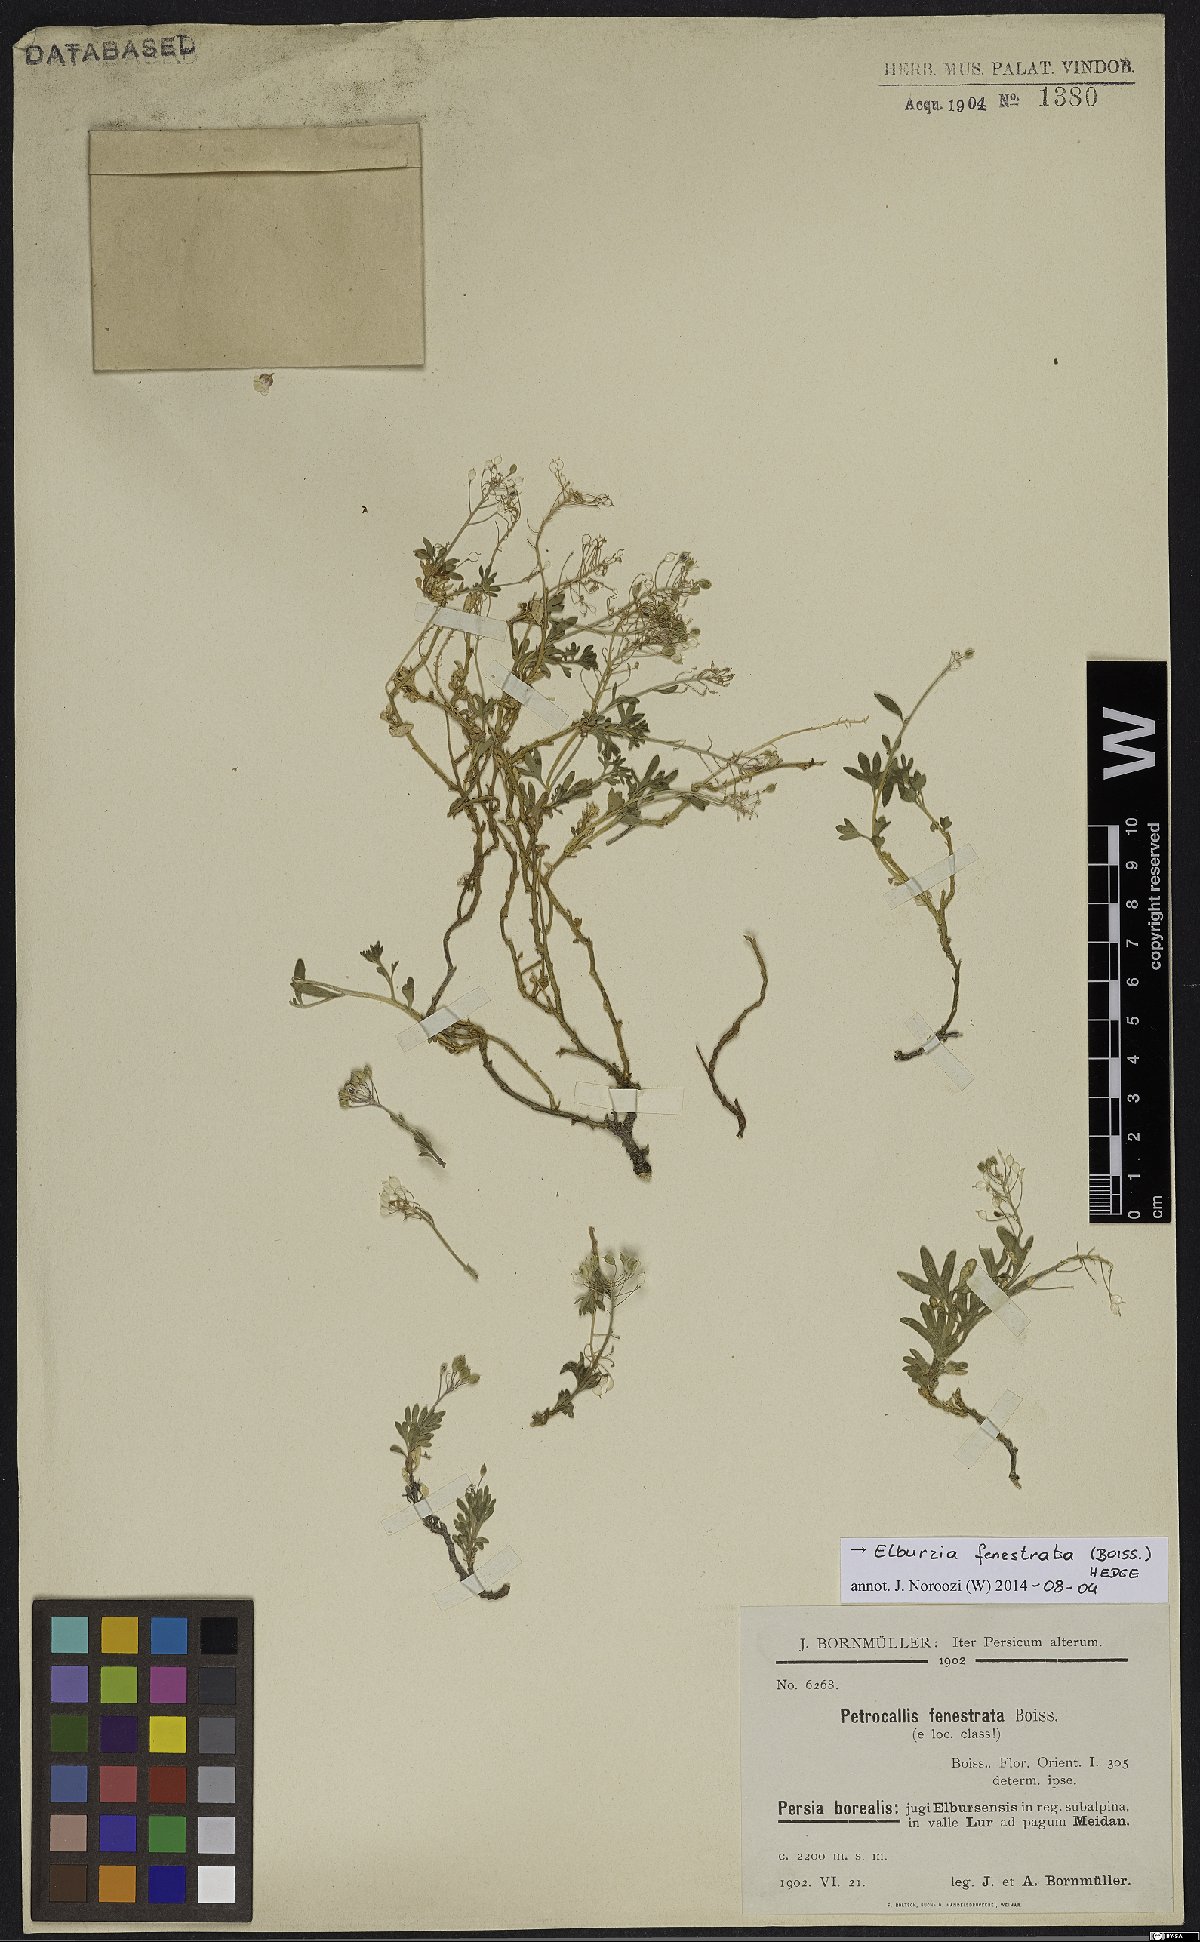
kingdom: Plantae
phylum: Tracheophyta
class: Magnoliopsida
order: Brassicales
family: Brassicaceae
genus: Didymophysa
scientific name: Didymophysa fenestrata
